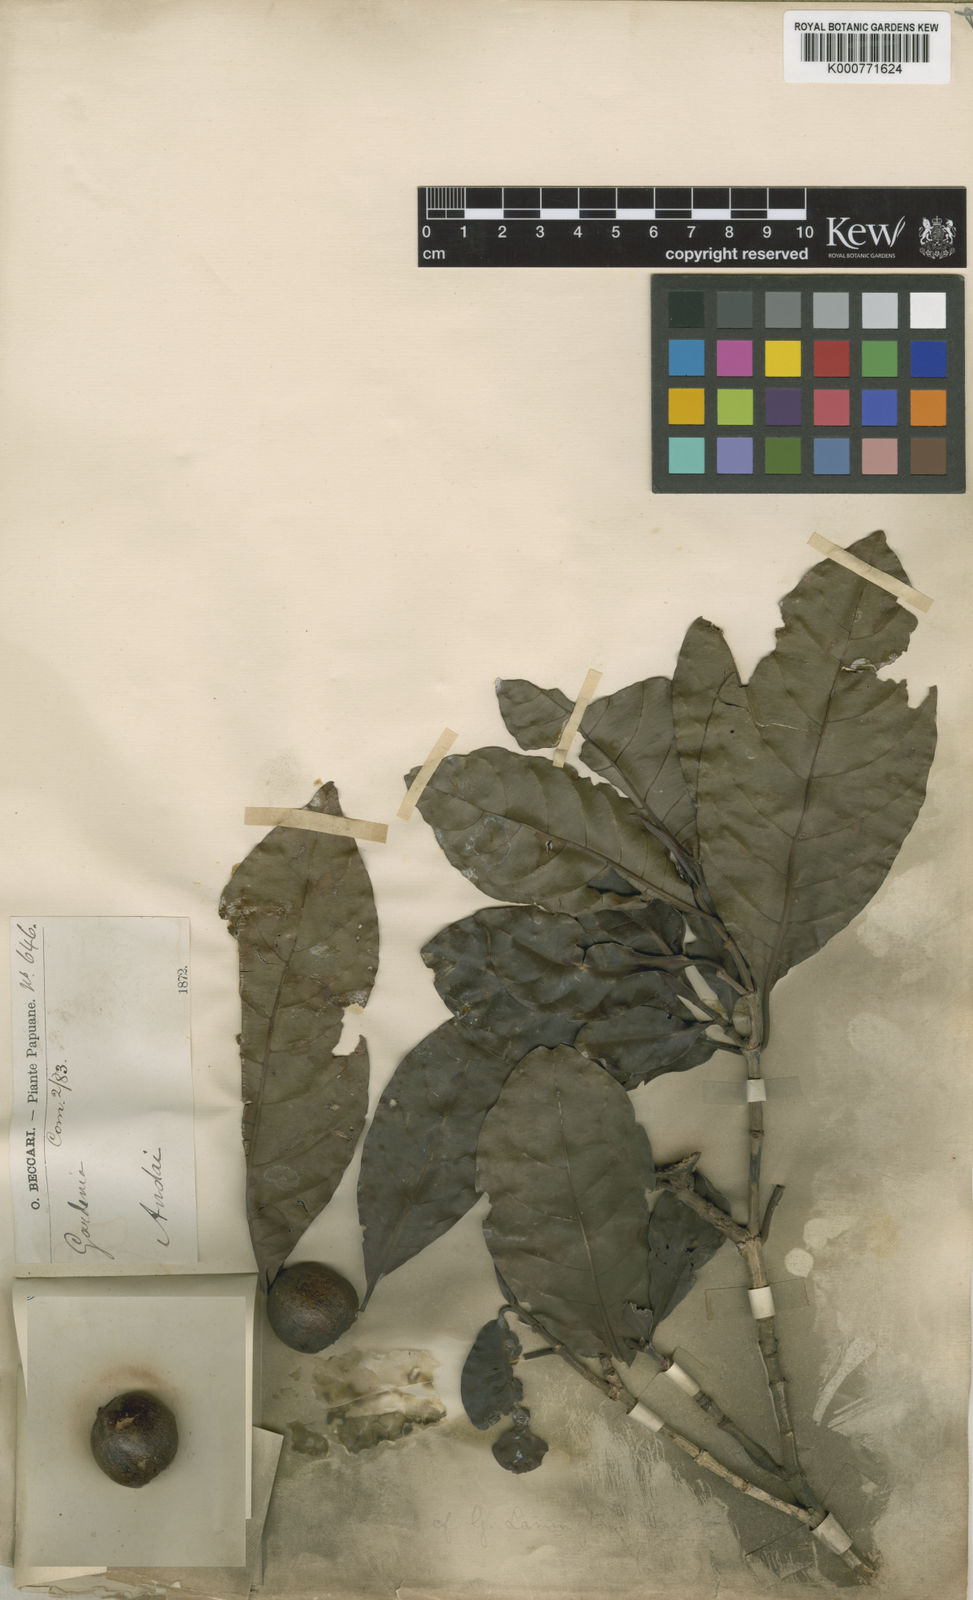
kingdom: Plantae
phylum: Tracheophyta
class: Magnoliopsida
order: Gentianales
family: Rubiaceae
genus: Gardenia
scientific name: Gardenia lamingtonii
